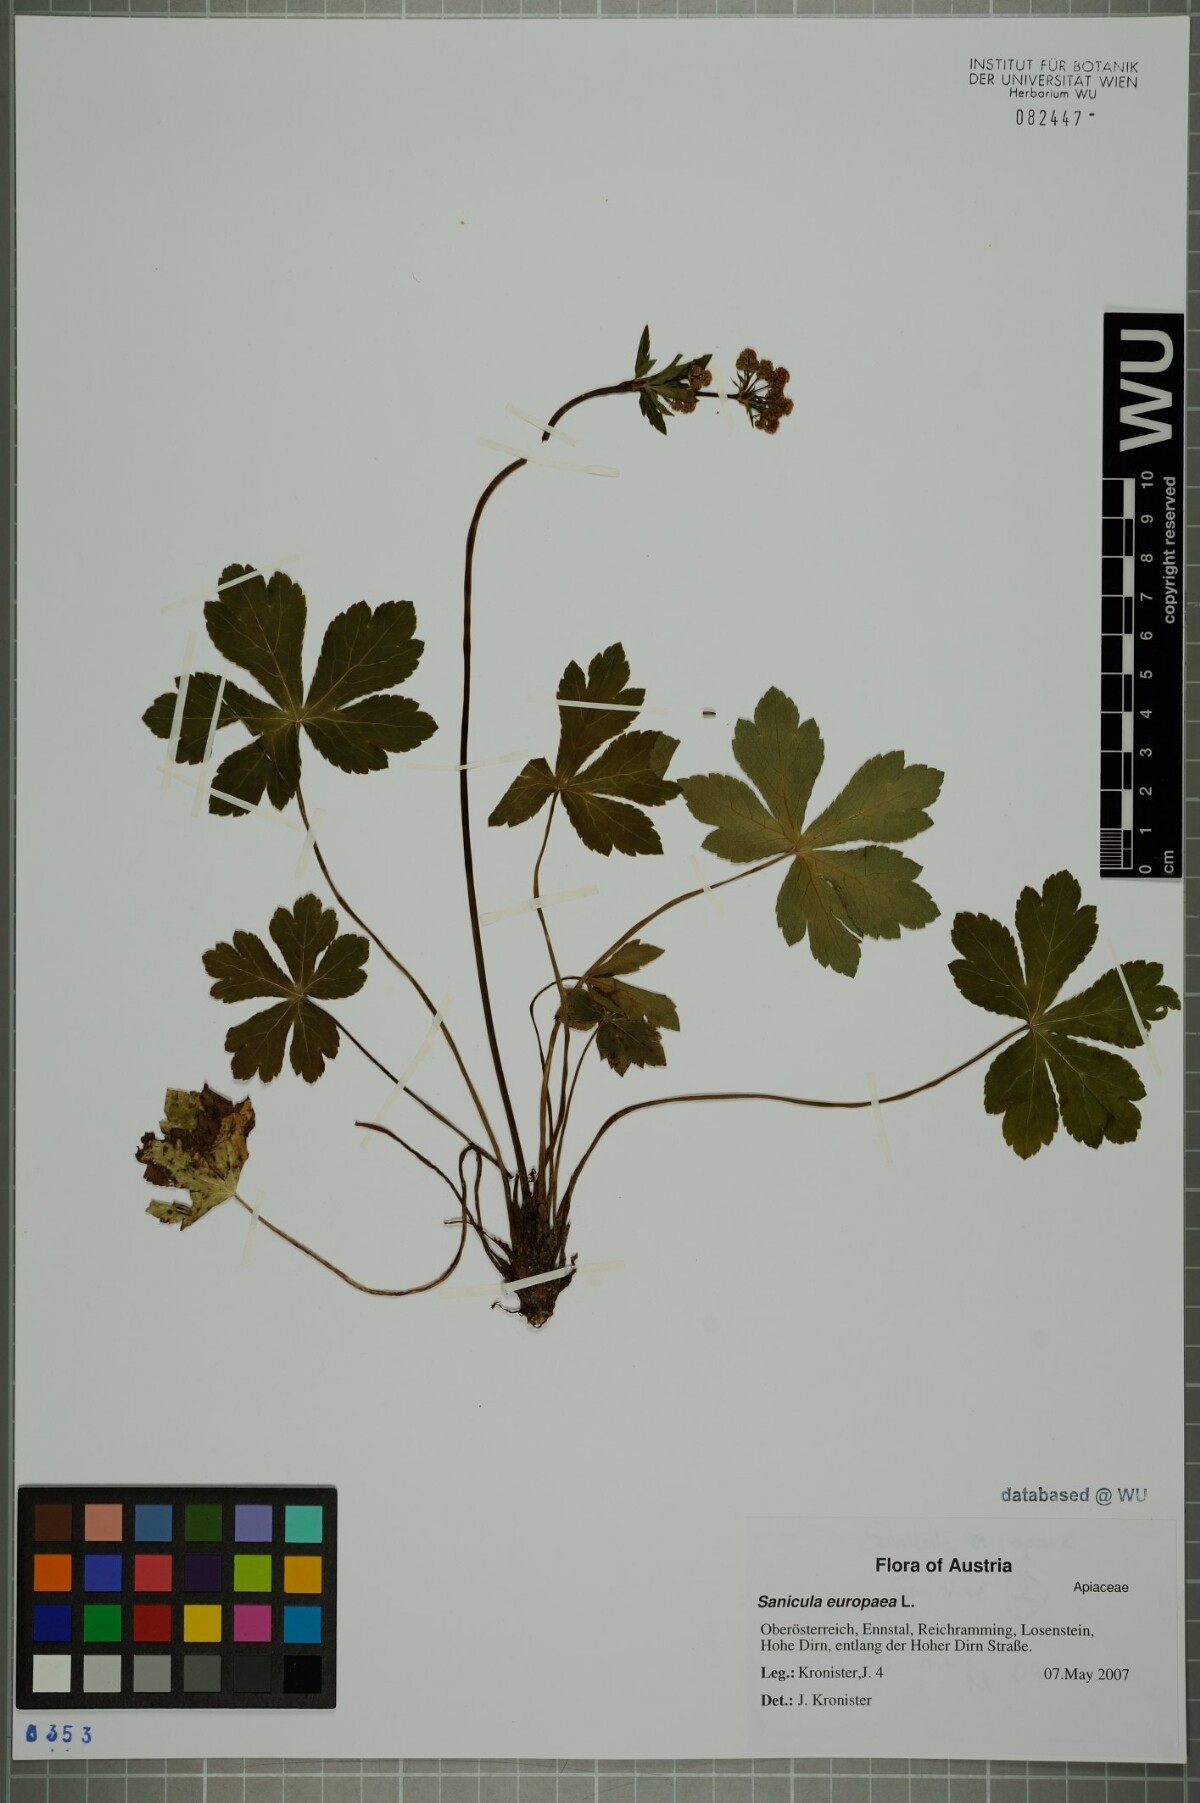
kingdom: Plantae
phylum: Tracheophyta
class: Magnoliopsida
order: Apiales
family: Apiaceae
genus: Sanicula
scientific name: Sanicula europaea
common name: Sanicle
